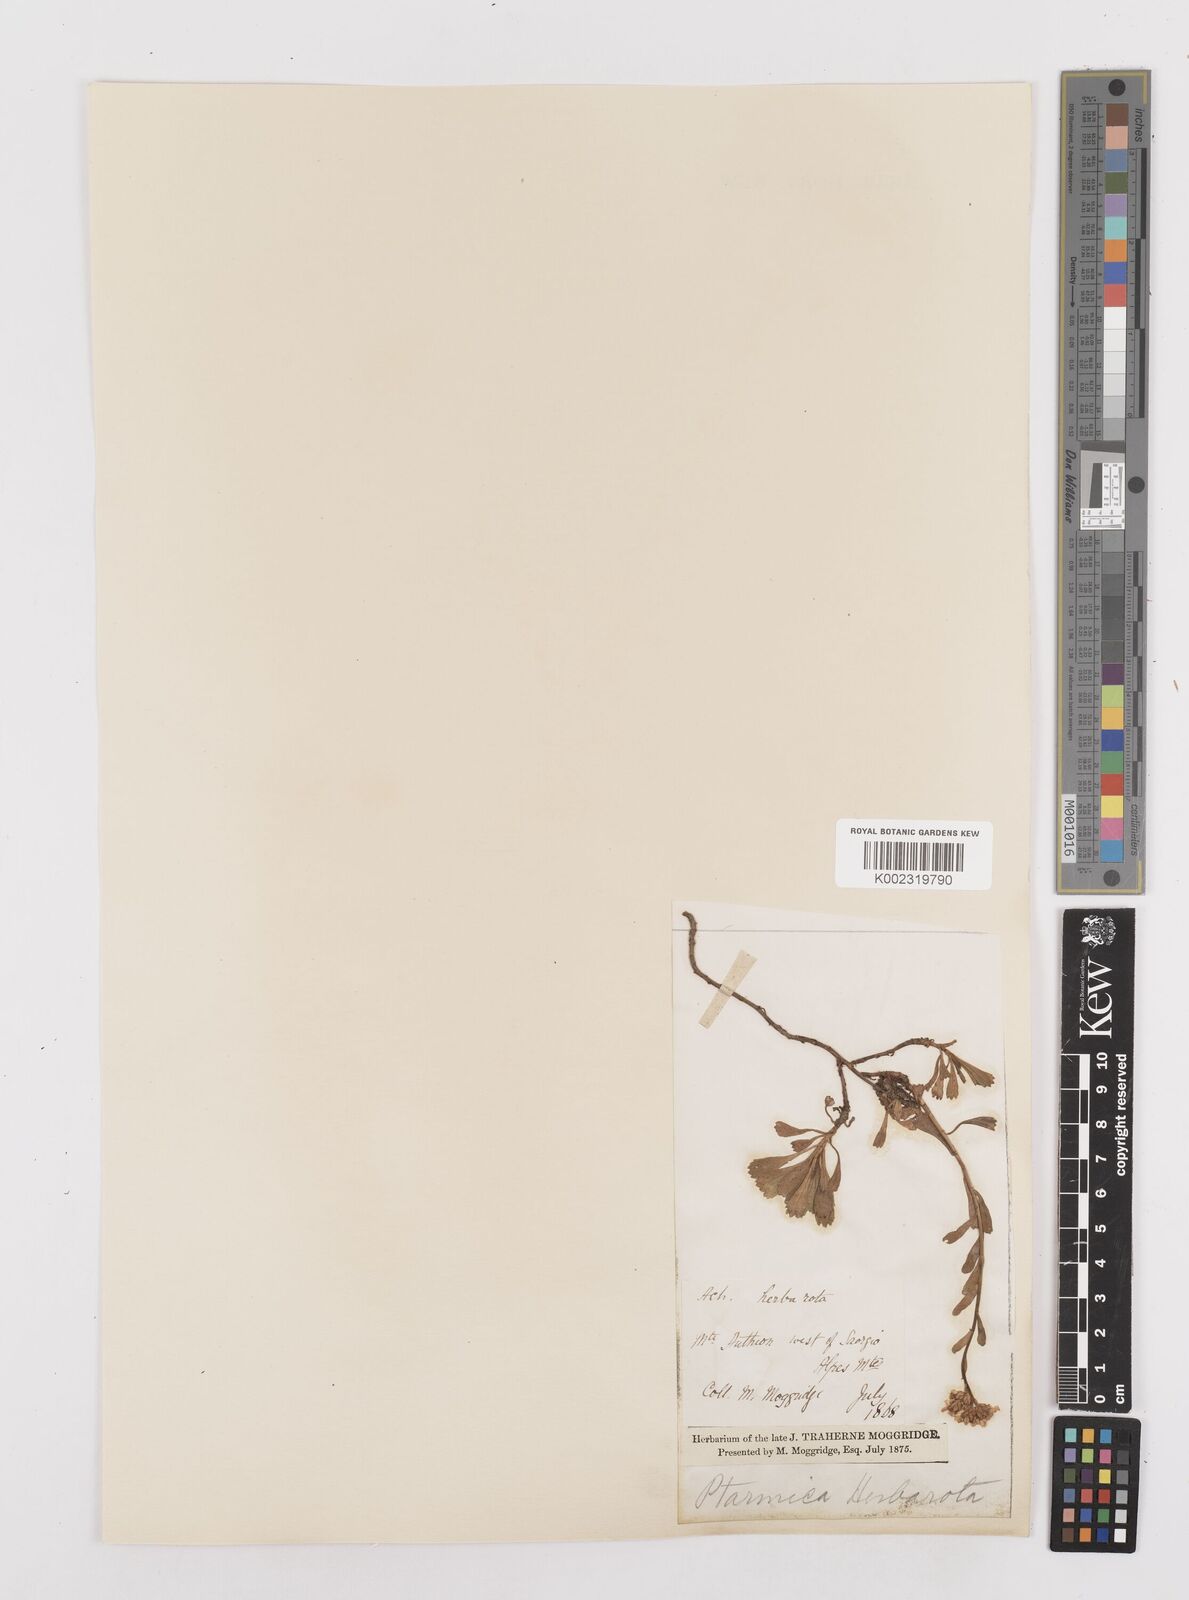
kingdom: Plantae
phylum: Tracheophyta
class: Magnoliopsida
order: Asterales
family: Asteraceae
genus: Achillea
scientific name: Achillea erba-rotta
